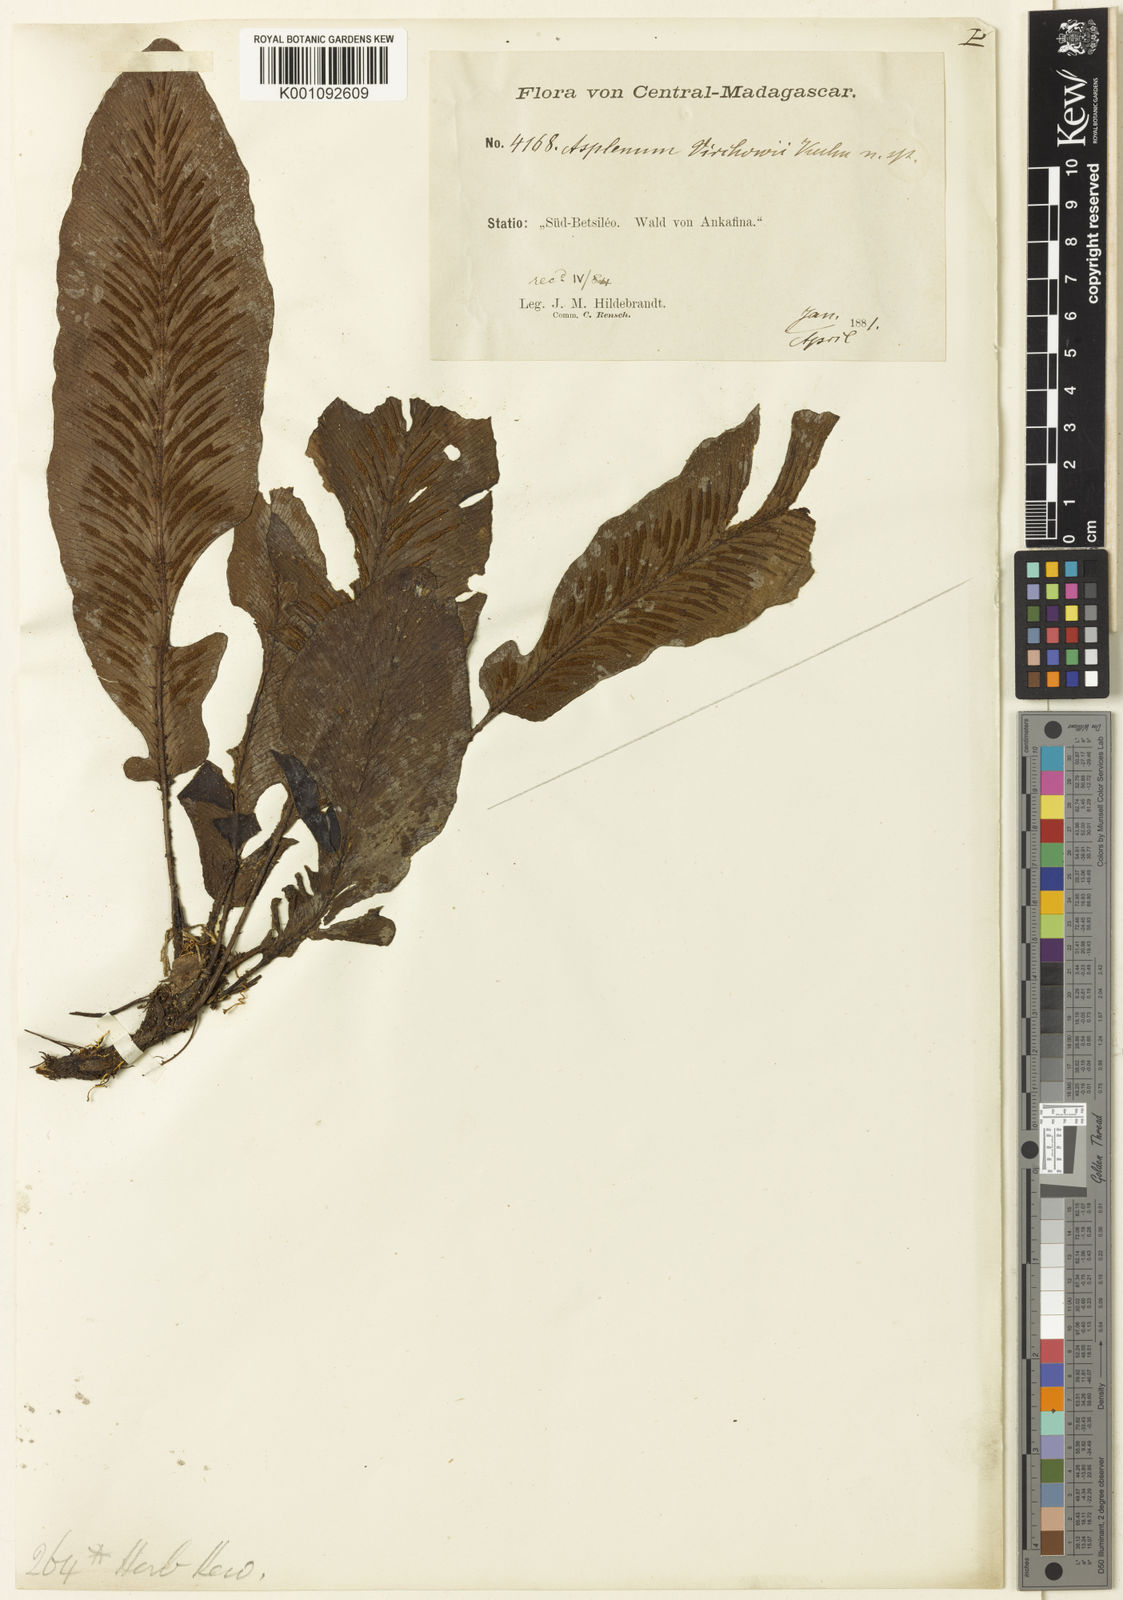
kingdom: Plantae
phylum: Tracheophyta
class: Polypodiopsida
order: Polypodiales
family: Aspleniaceae
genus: Asplenium
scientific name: Asplenium virchowii
